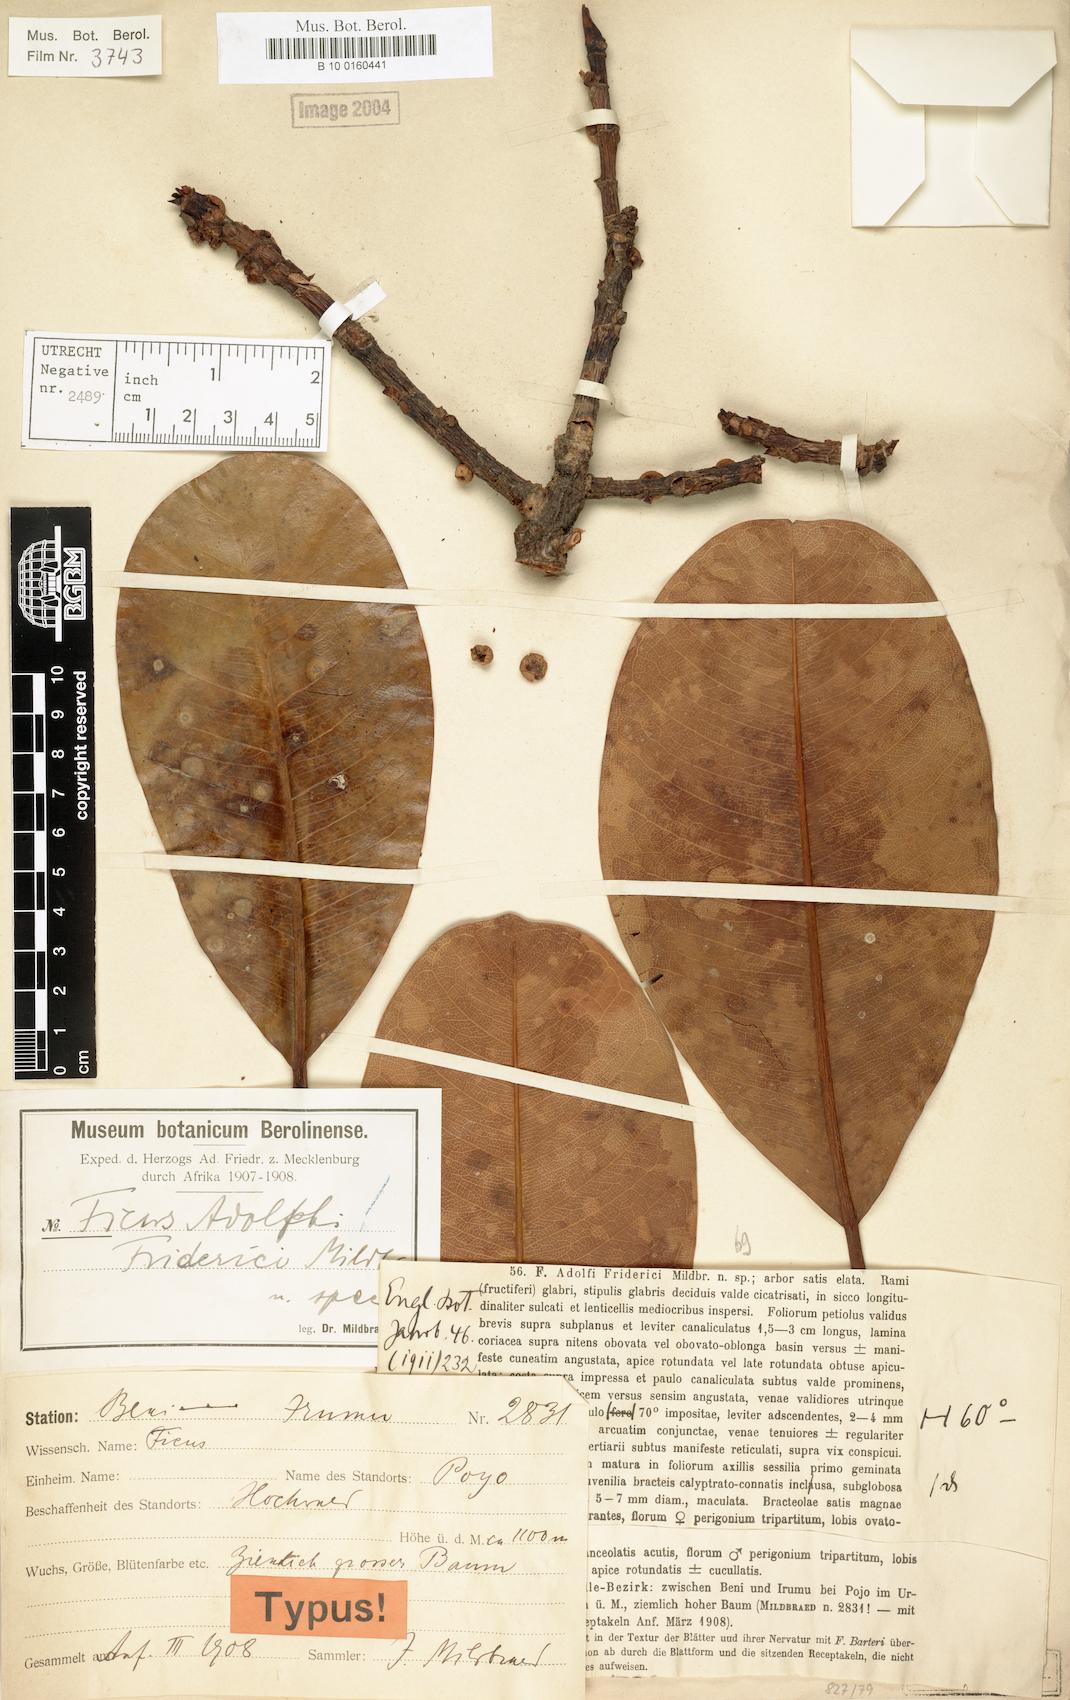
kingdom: Plantae
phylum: Tracheophyta
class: Magnoliopsida
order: Rosales
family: Moraceae
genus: Ficus
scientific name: Ficus adolfi-friderici
